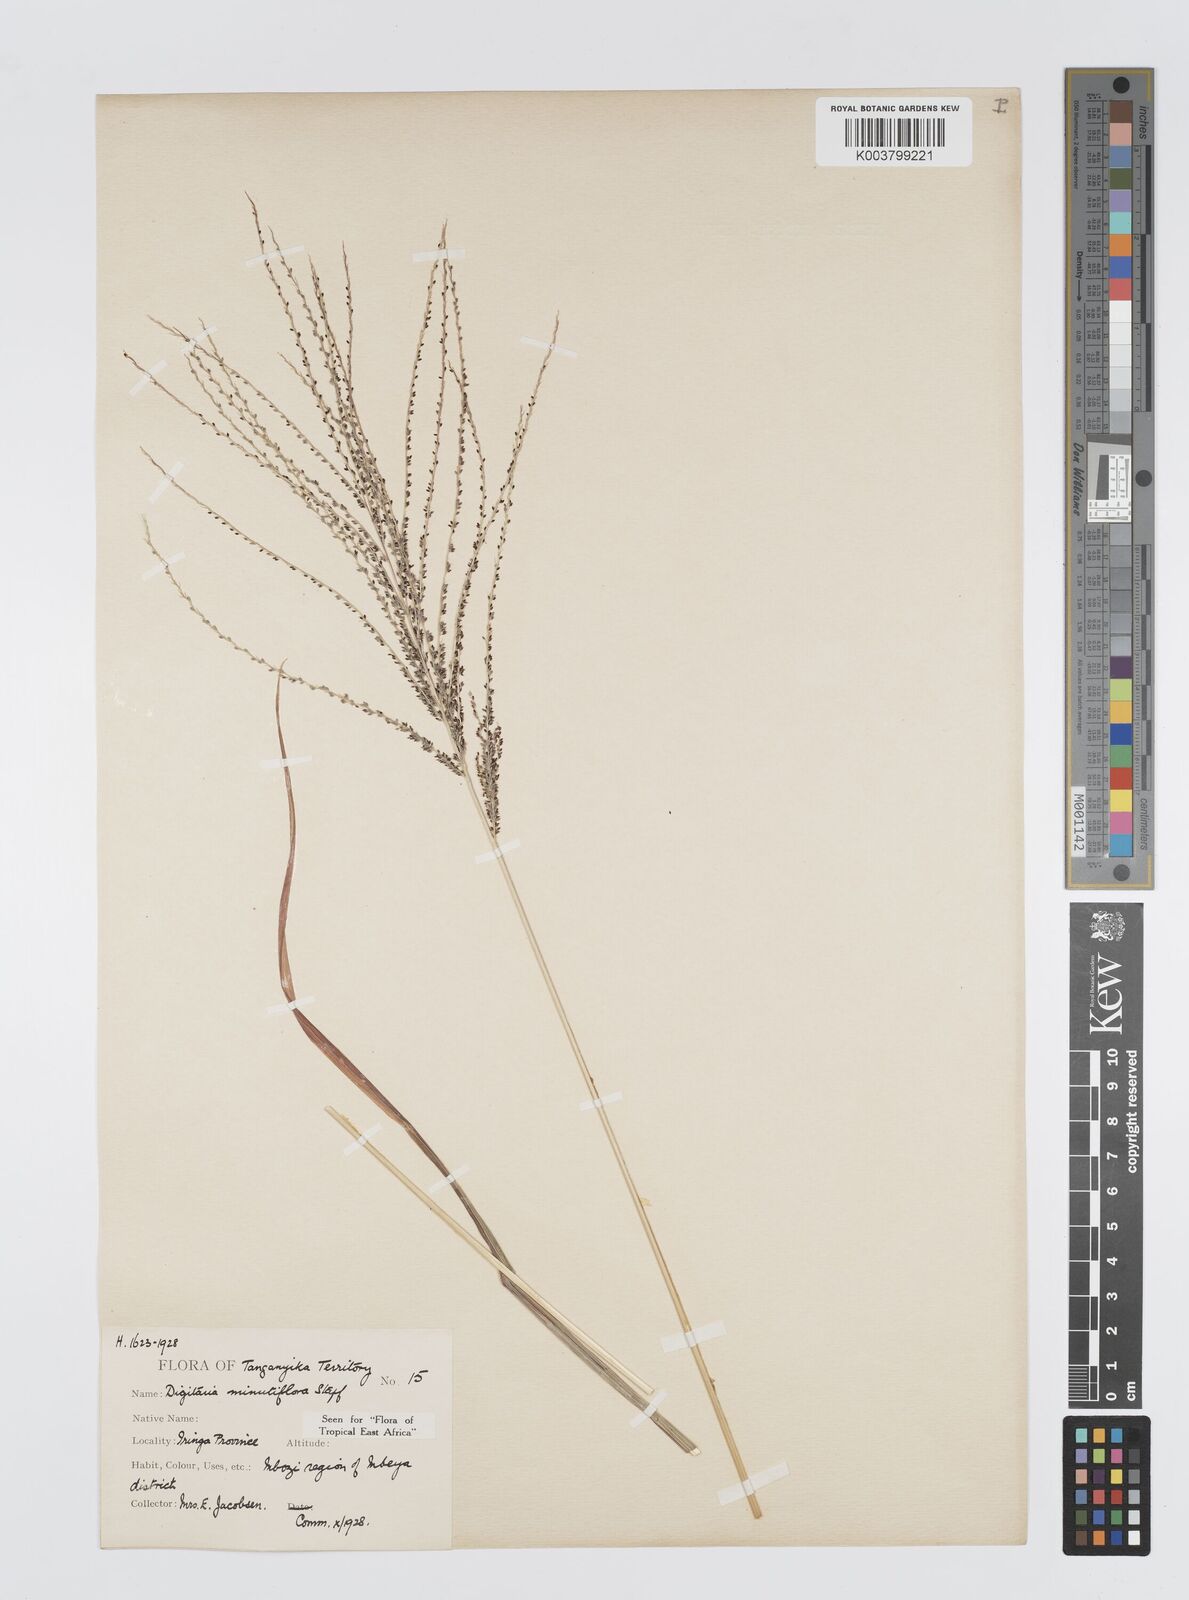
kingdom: Plantae
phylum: Tracheophyta
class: Liliopsida
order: Poales
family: Poaceae
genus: Digitaria
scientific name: Digitaria pseudodiagonalis
